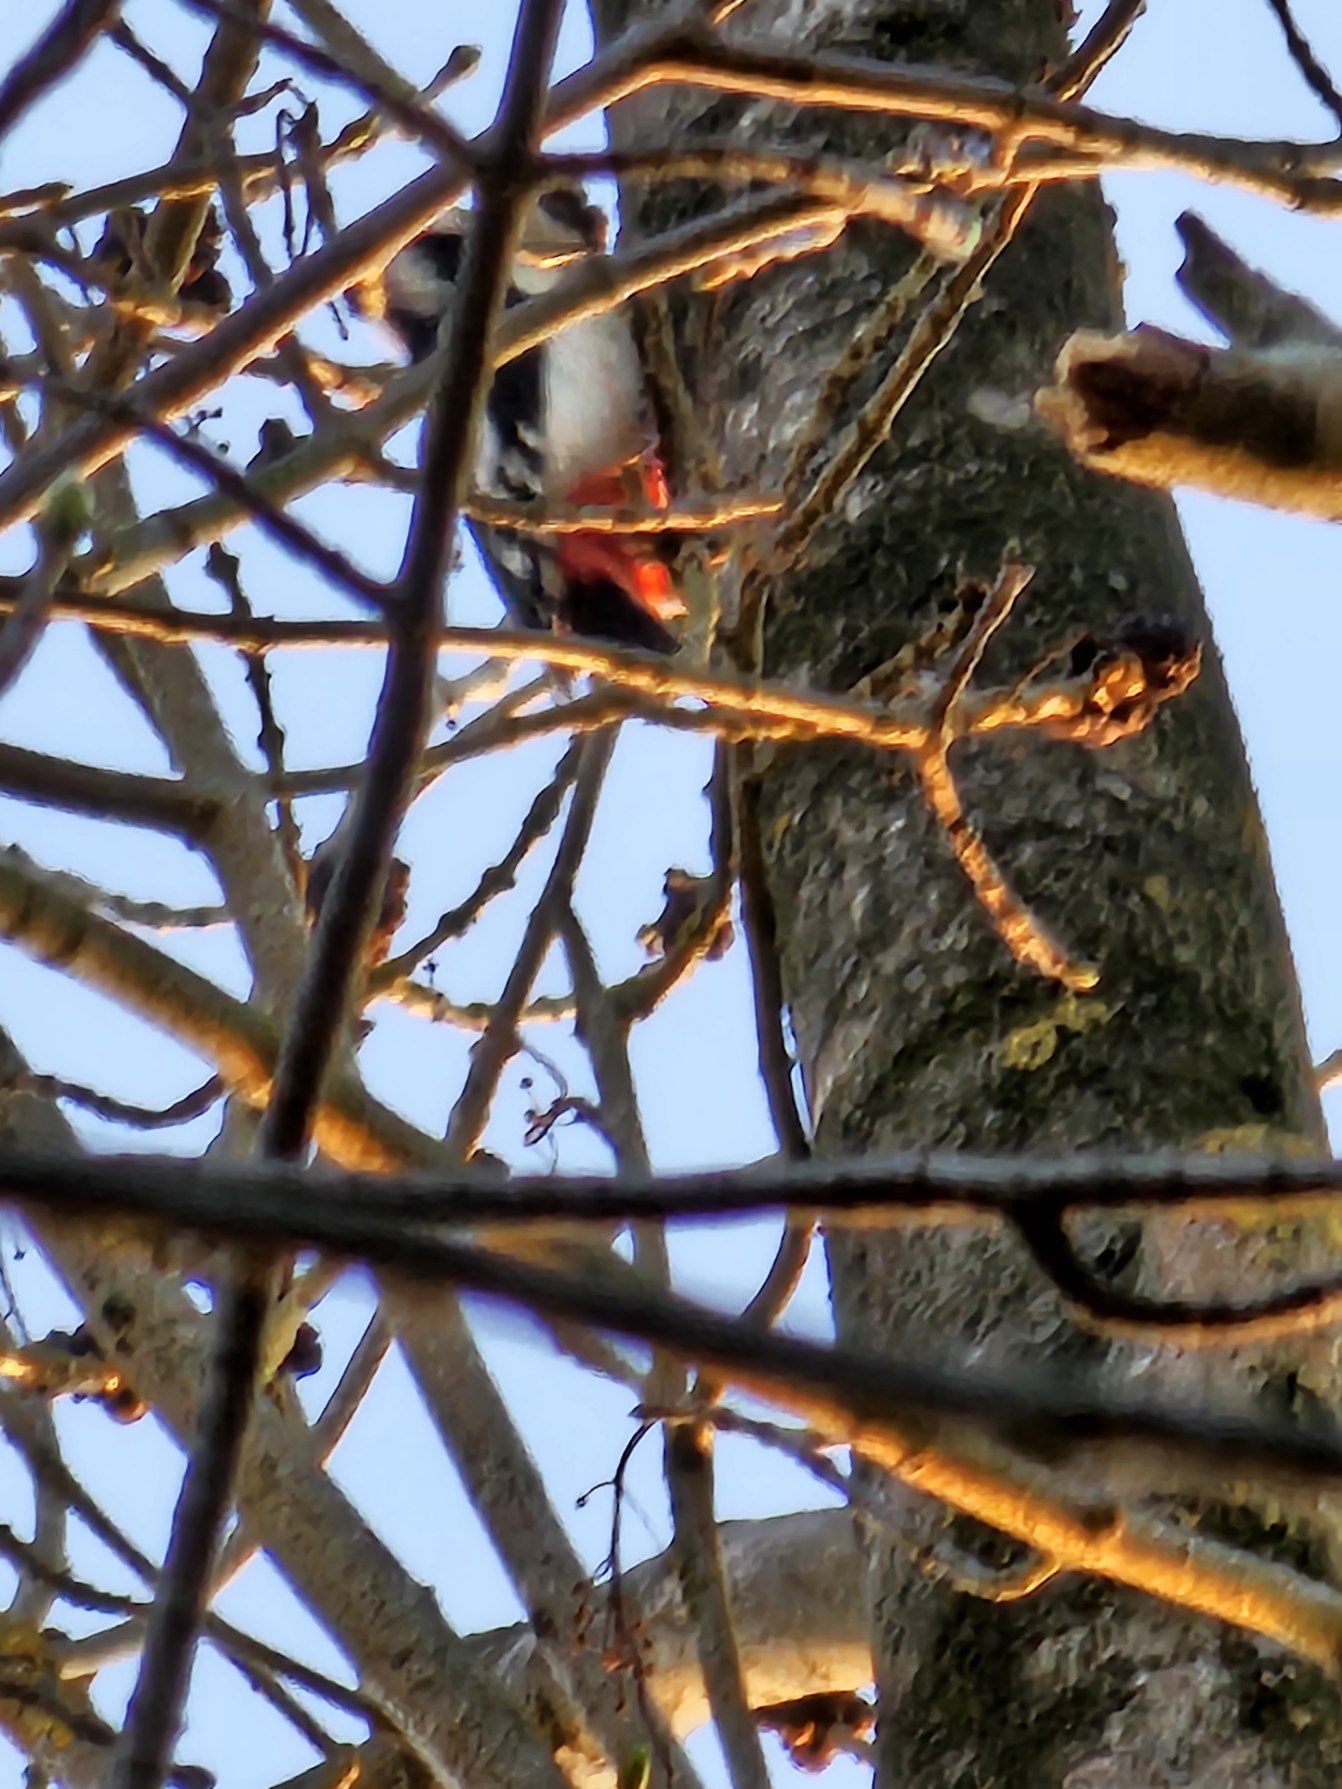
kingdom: Animalia
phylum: Chordata
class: Aves
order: Piciformes
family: Picidae
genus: Dendrocopos
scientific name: Dendrocopos major
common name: Stor flagspætte
